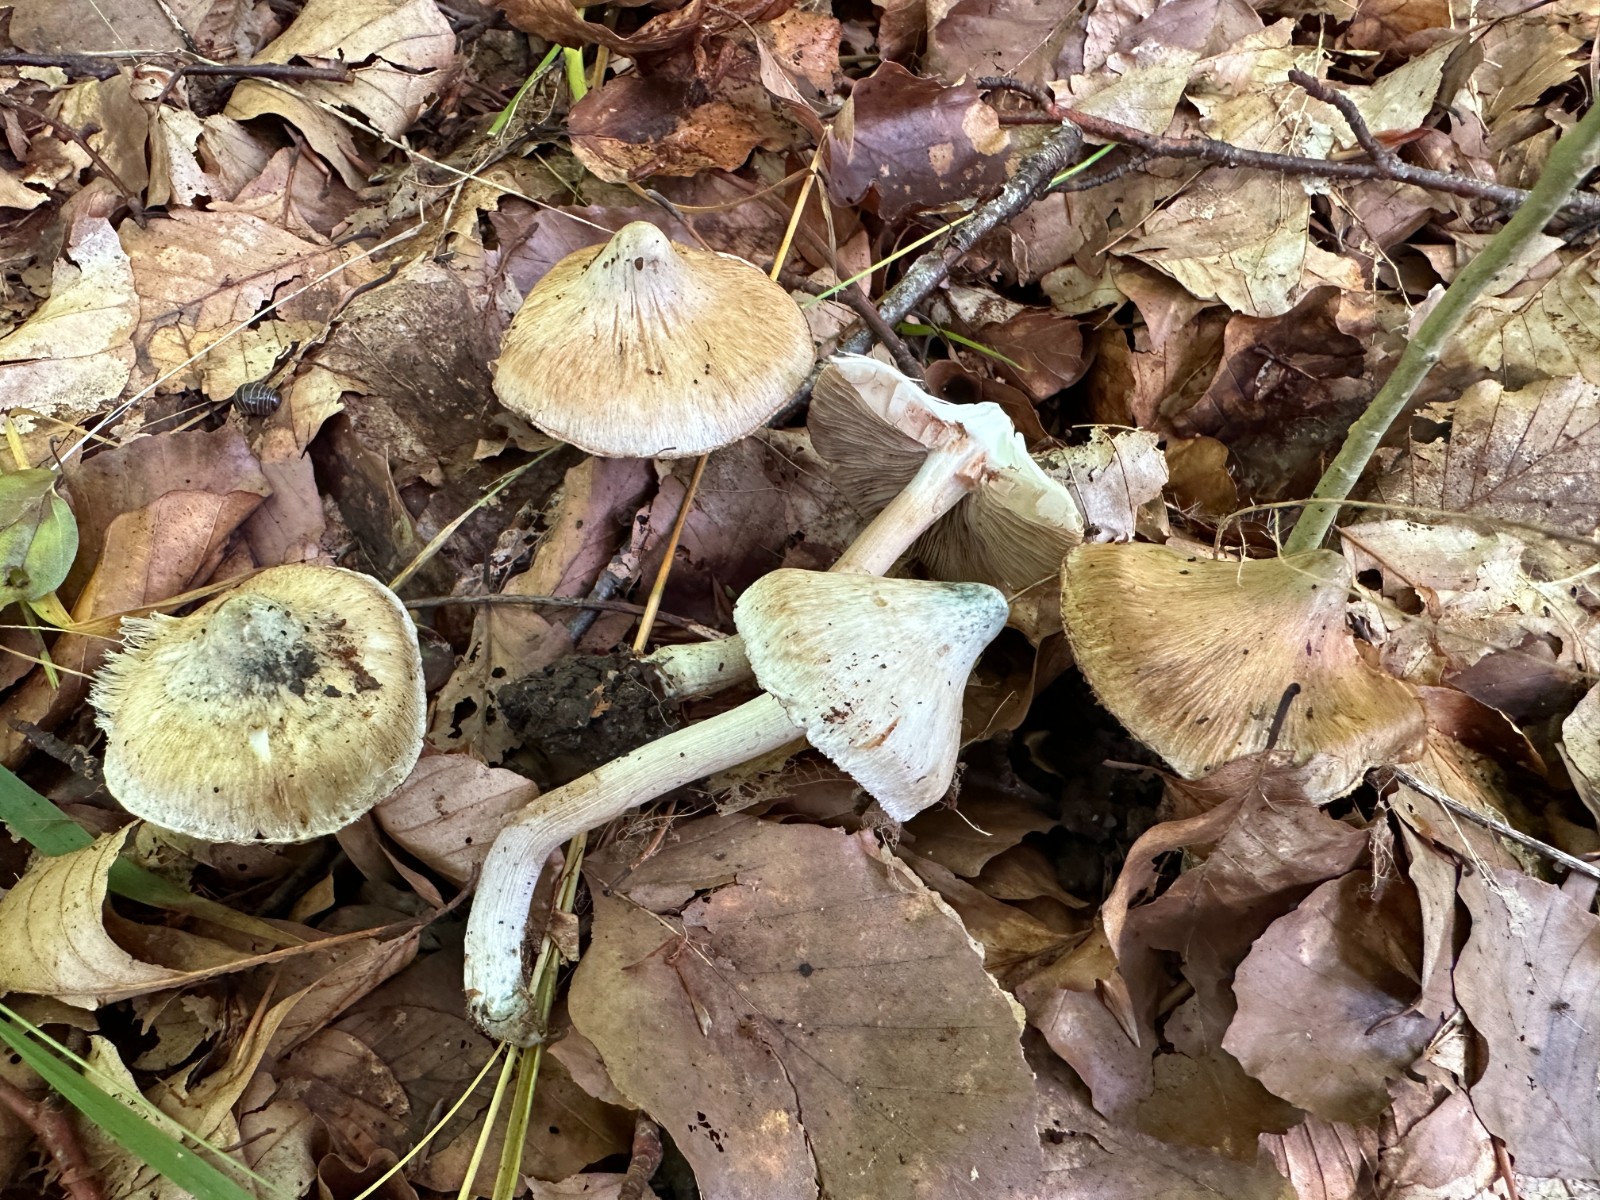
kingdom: Fungi
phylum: Basidiomycota
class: Agaricomycetes
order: Agaricales
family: Inocybaceae
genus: Inocybe
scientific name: Inocybe corydalina
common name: grønpuklet trævlhat
